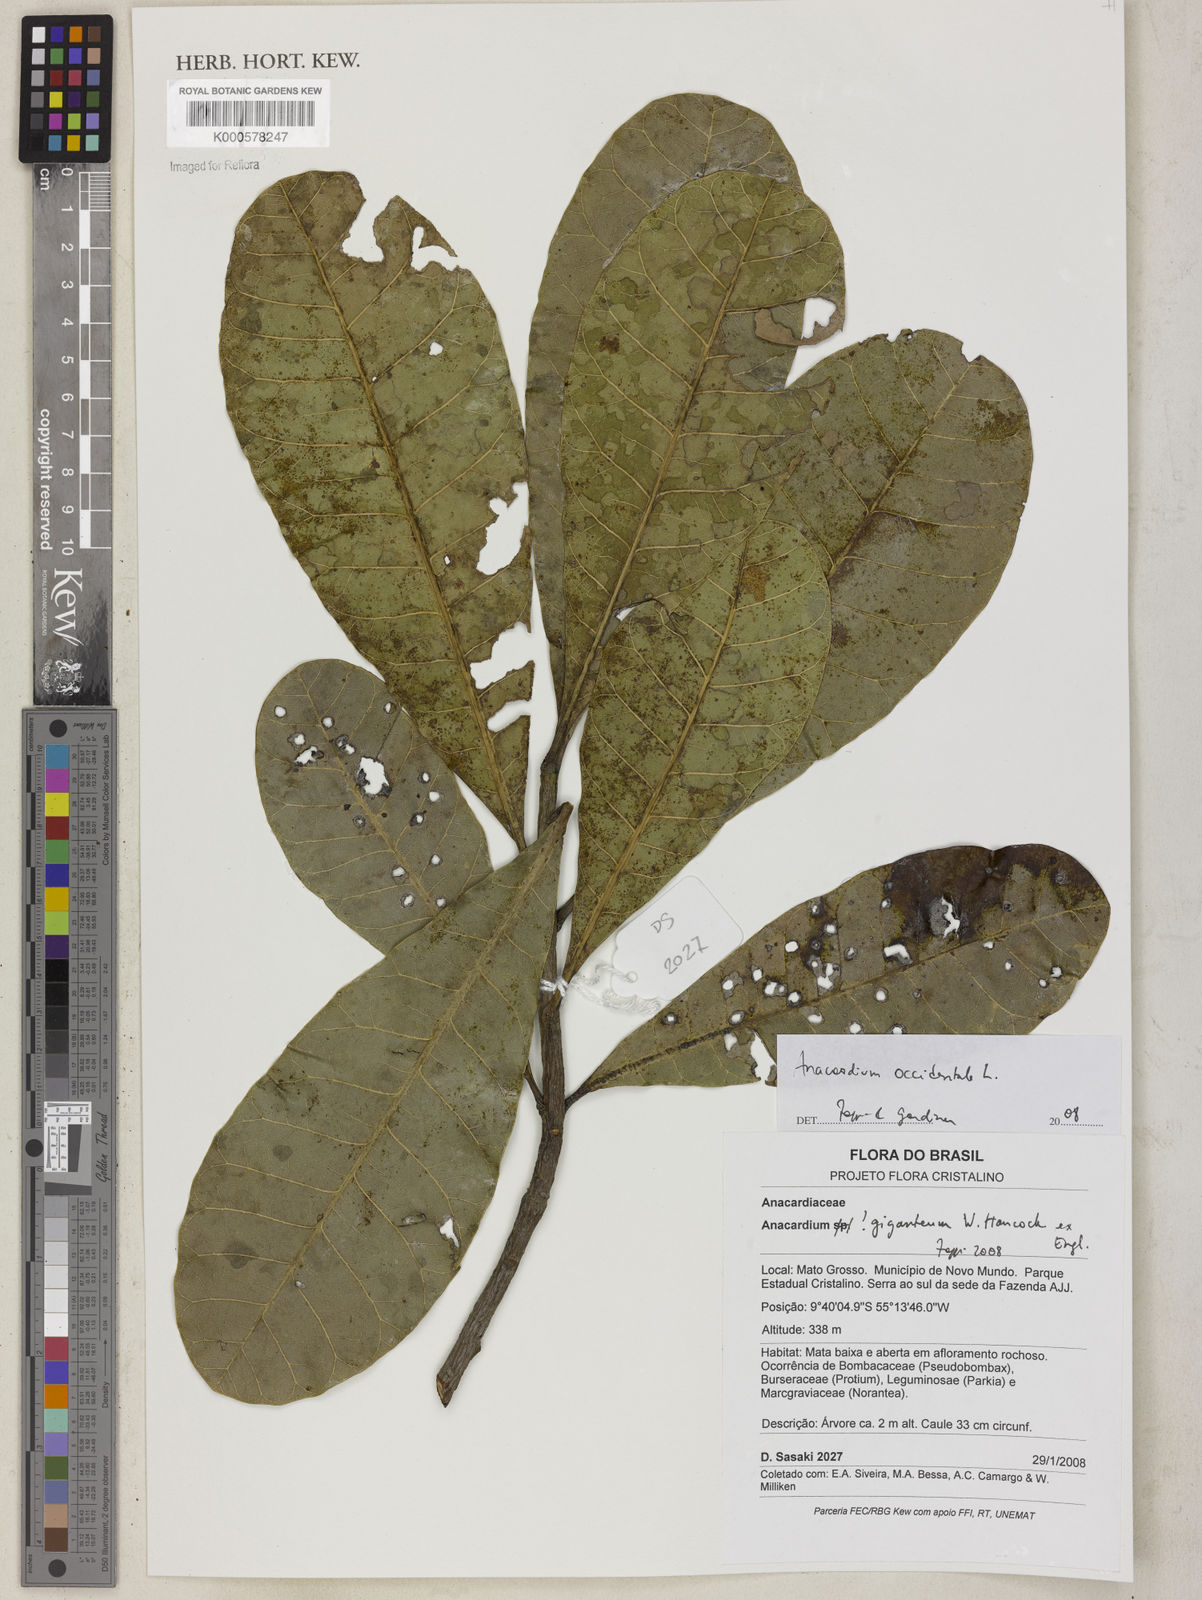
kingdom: Plantae
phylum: Tracheophyta
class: Magnoliopsida
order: Sapindales
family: Anacardiaceae
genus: Anacardium
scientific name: Anacardium occidentale
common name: Cashew
